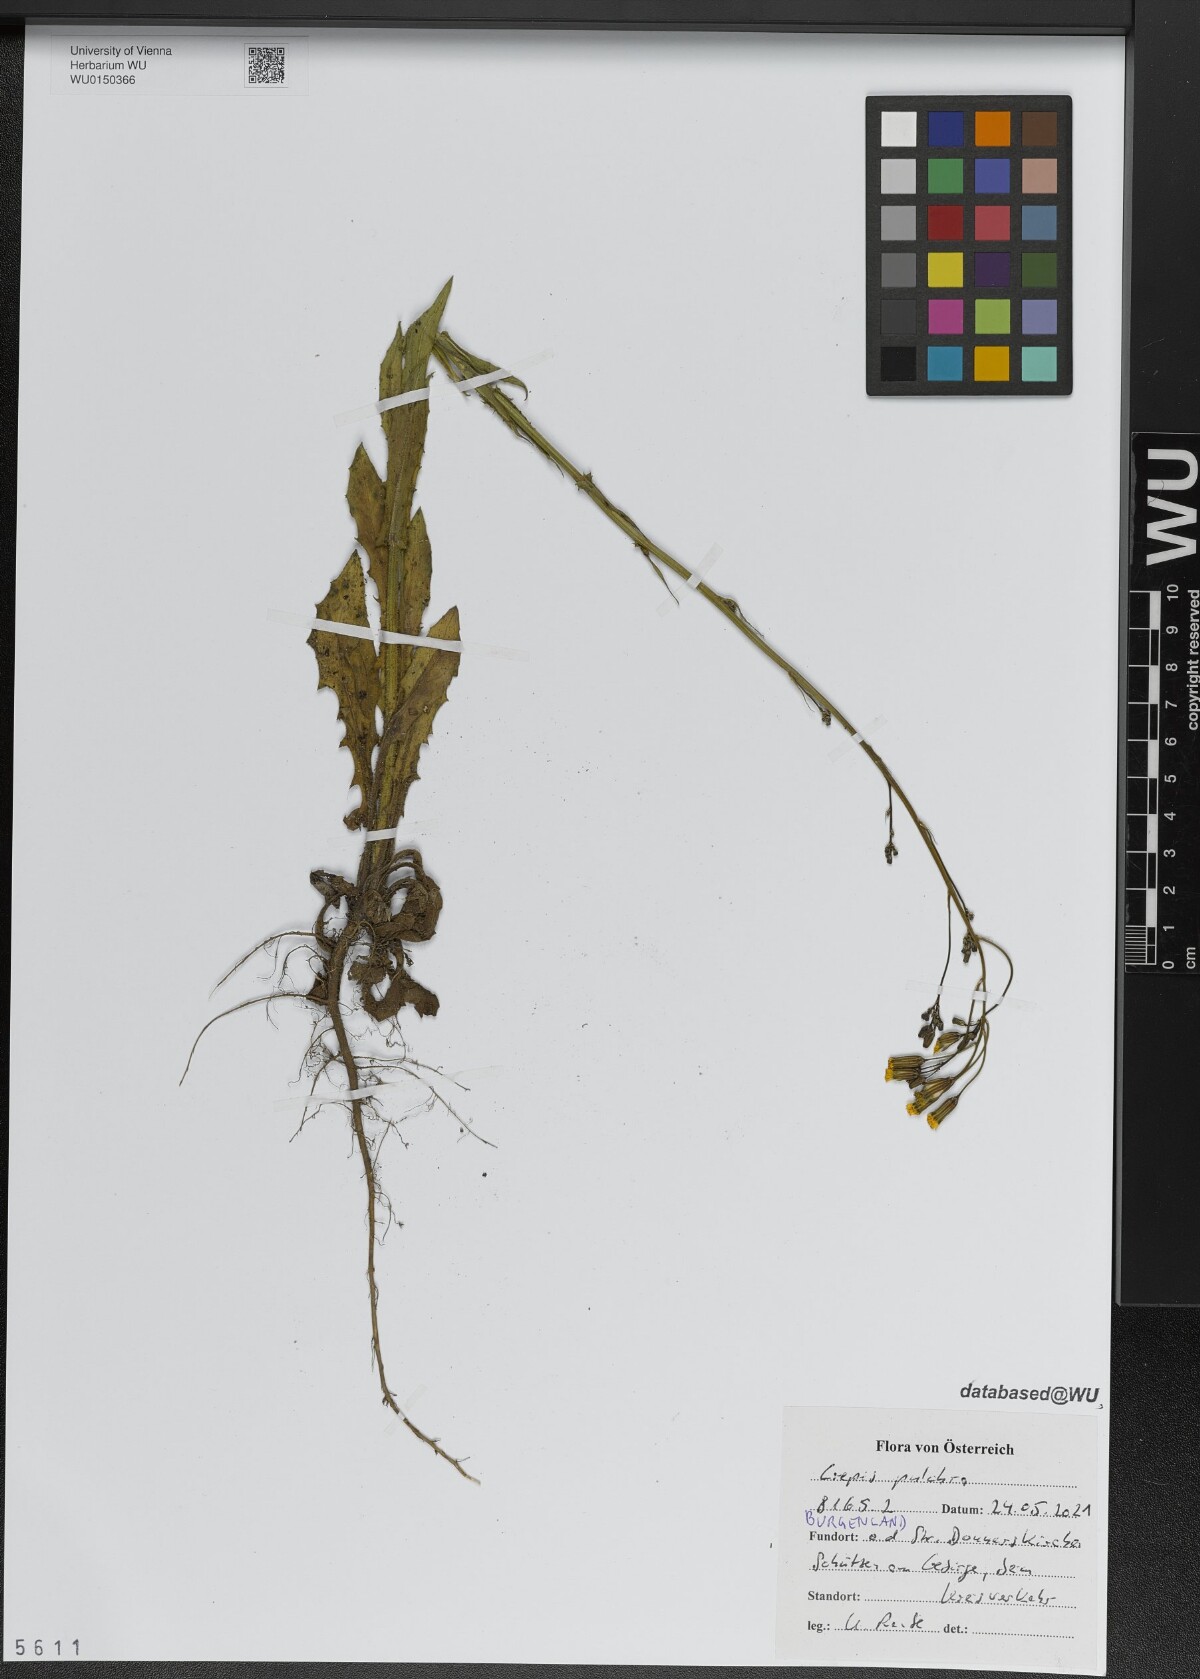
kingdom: Plantae
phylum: Tracheophyta
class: Magnoliopsida
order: Asterales
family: Asteraceae
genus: Crepis
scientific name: Crepis pulchra
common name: Hawk's-beard
